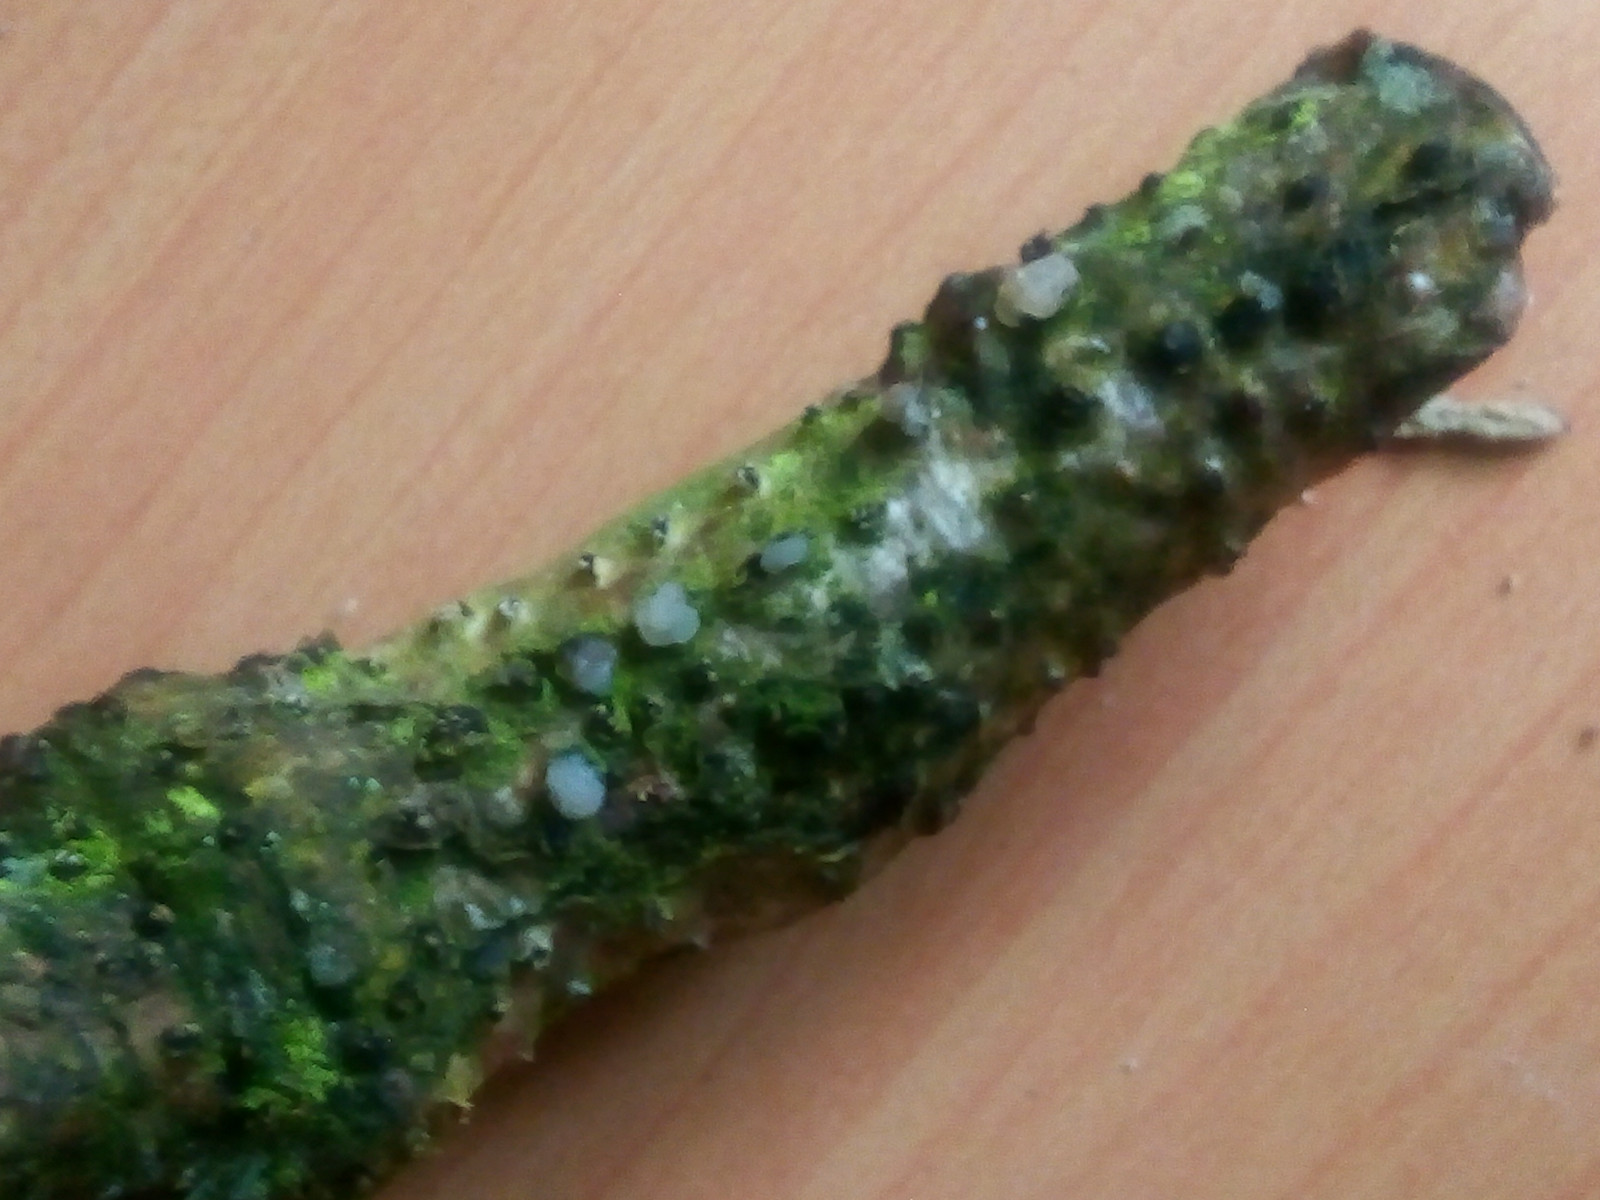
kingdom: Fungi
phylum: Basidiomycota
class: Tremellomycetes
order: Tremellales
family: Tremellaceae
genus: Tremella
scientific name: Tremella globispora
